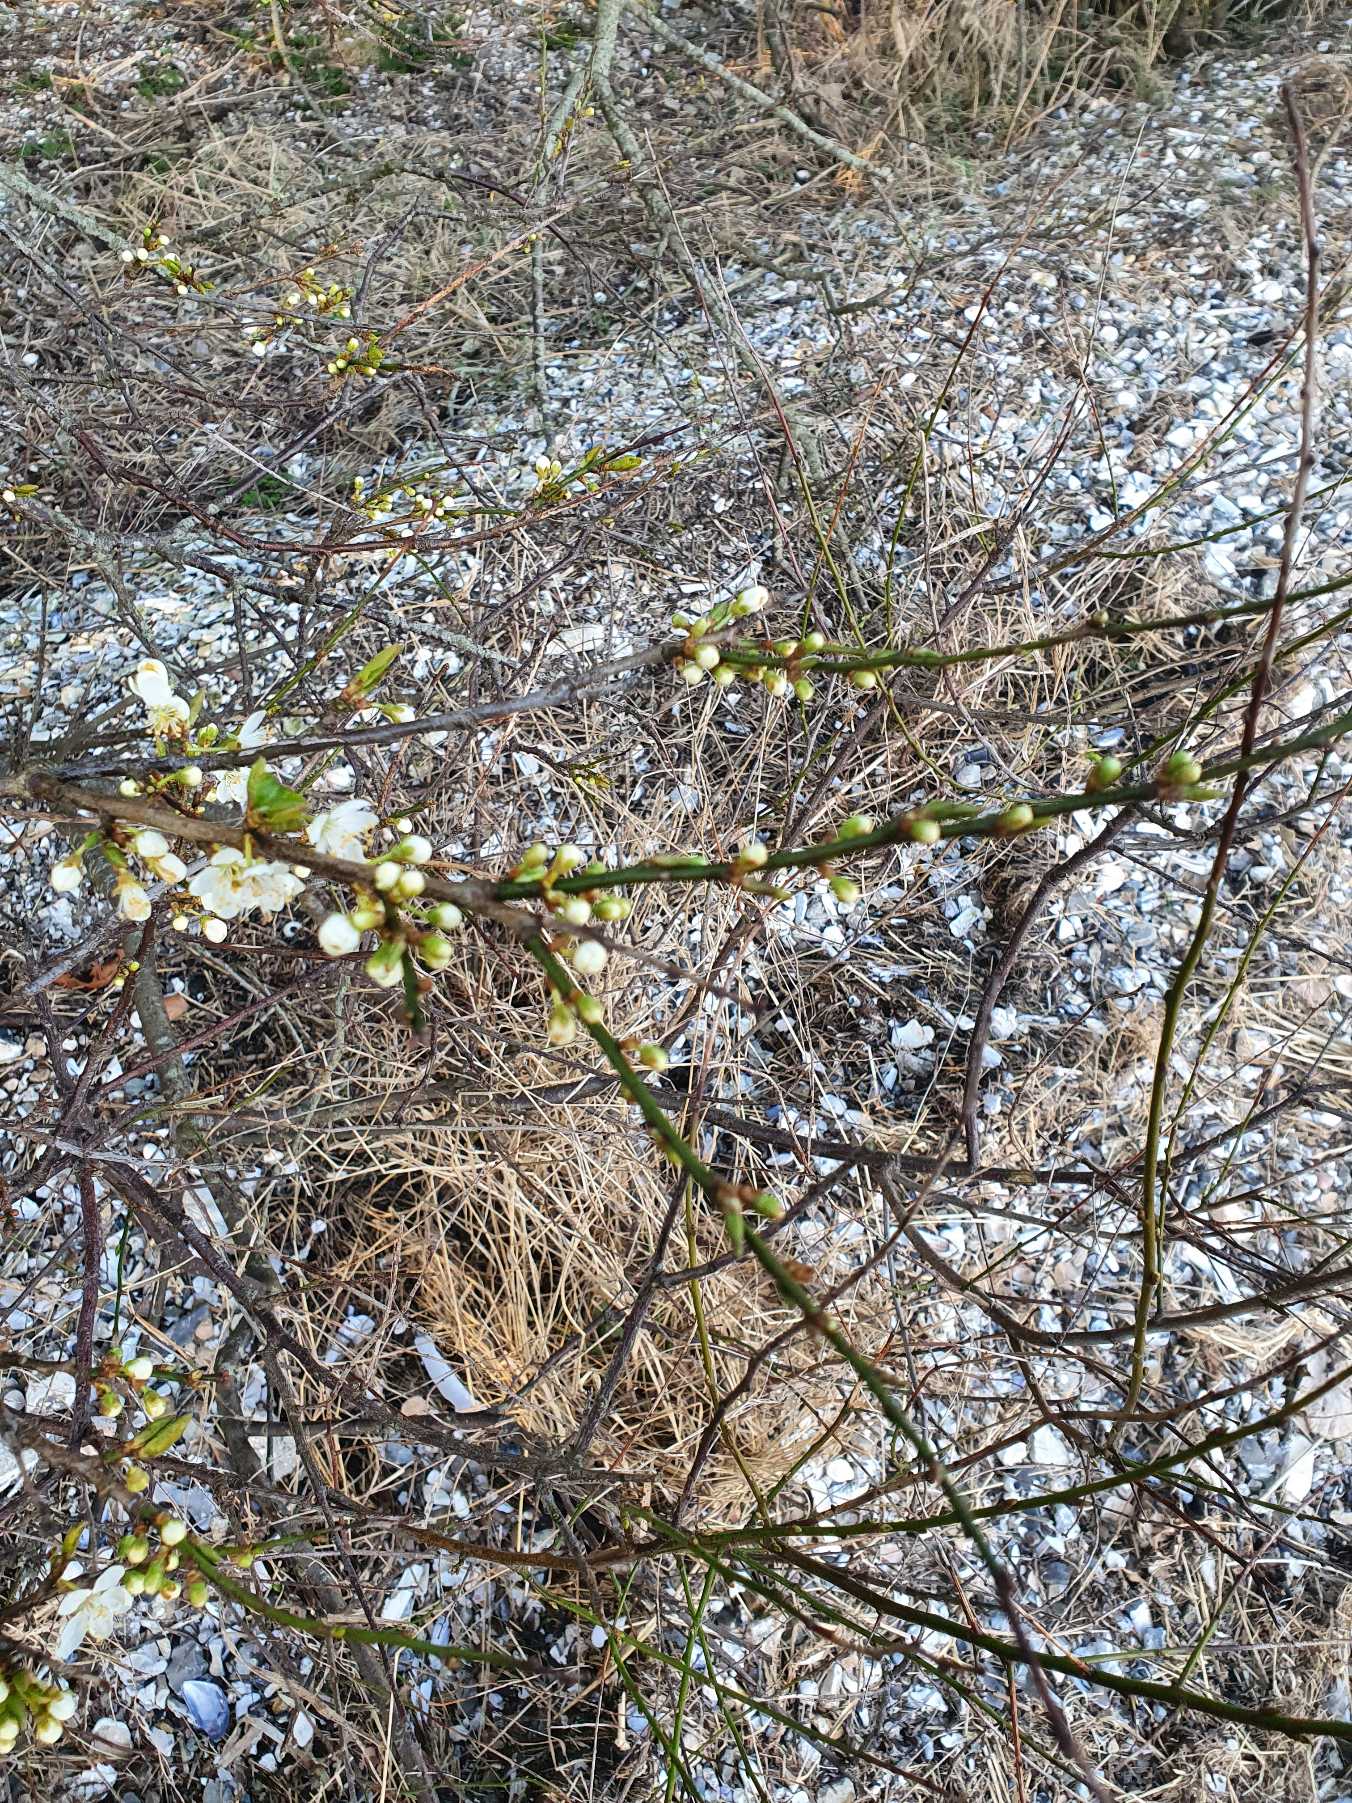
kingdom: Plantae
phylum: Tracheophyta
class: Magnoliopsida
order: Rosales
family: Rosaceae
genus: Prunus
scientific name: Prunus cerasifera
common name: Mirabel
